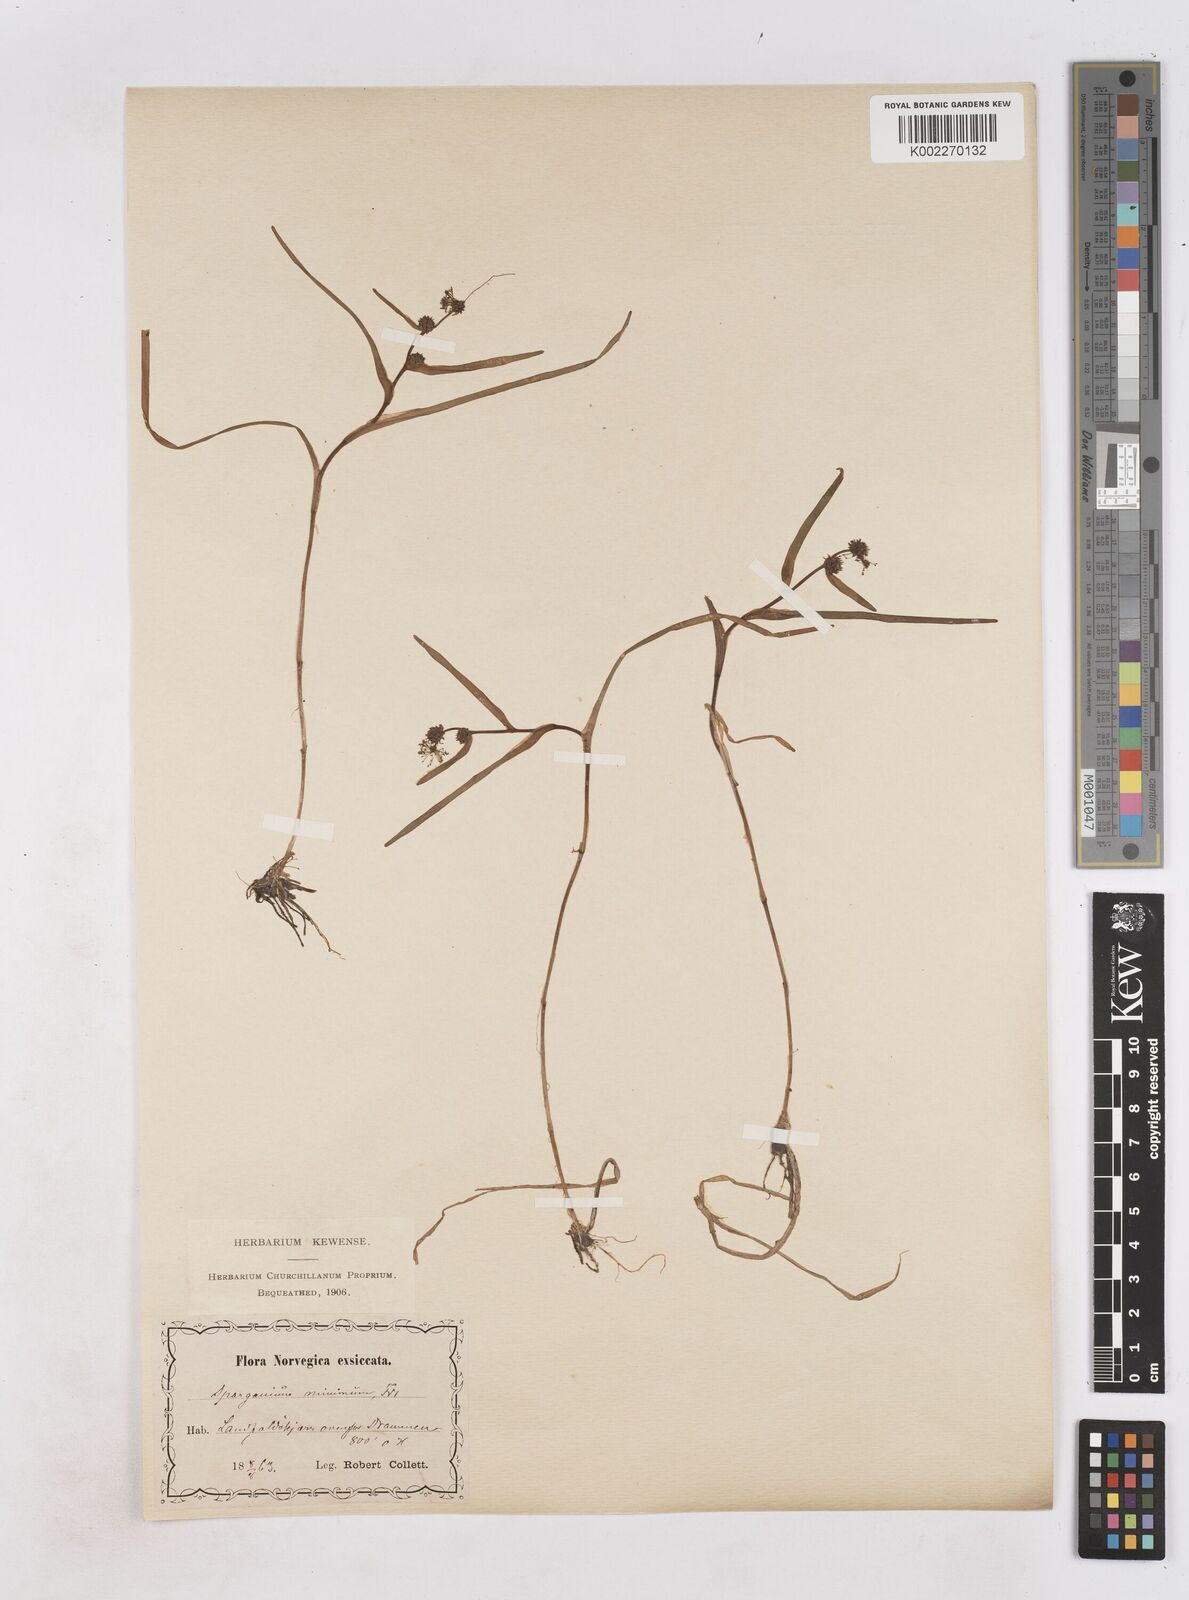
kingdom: Plantae
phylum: Tracheophyta
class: Liliopsida
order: Poales
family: Typhaceae
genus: Sparganium
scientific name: Sparganium natans
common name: Least bur-reed
